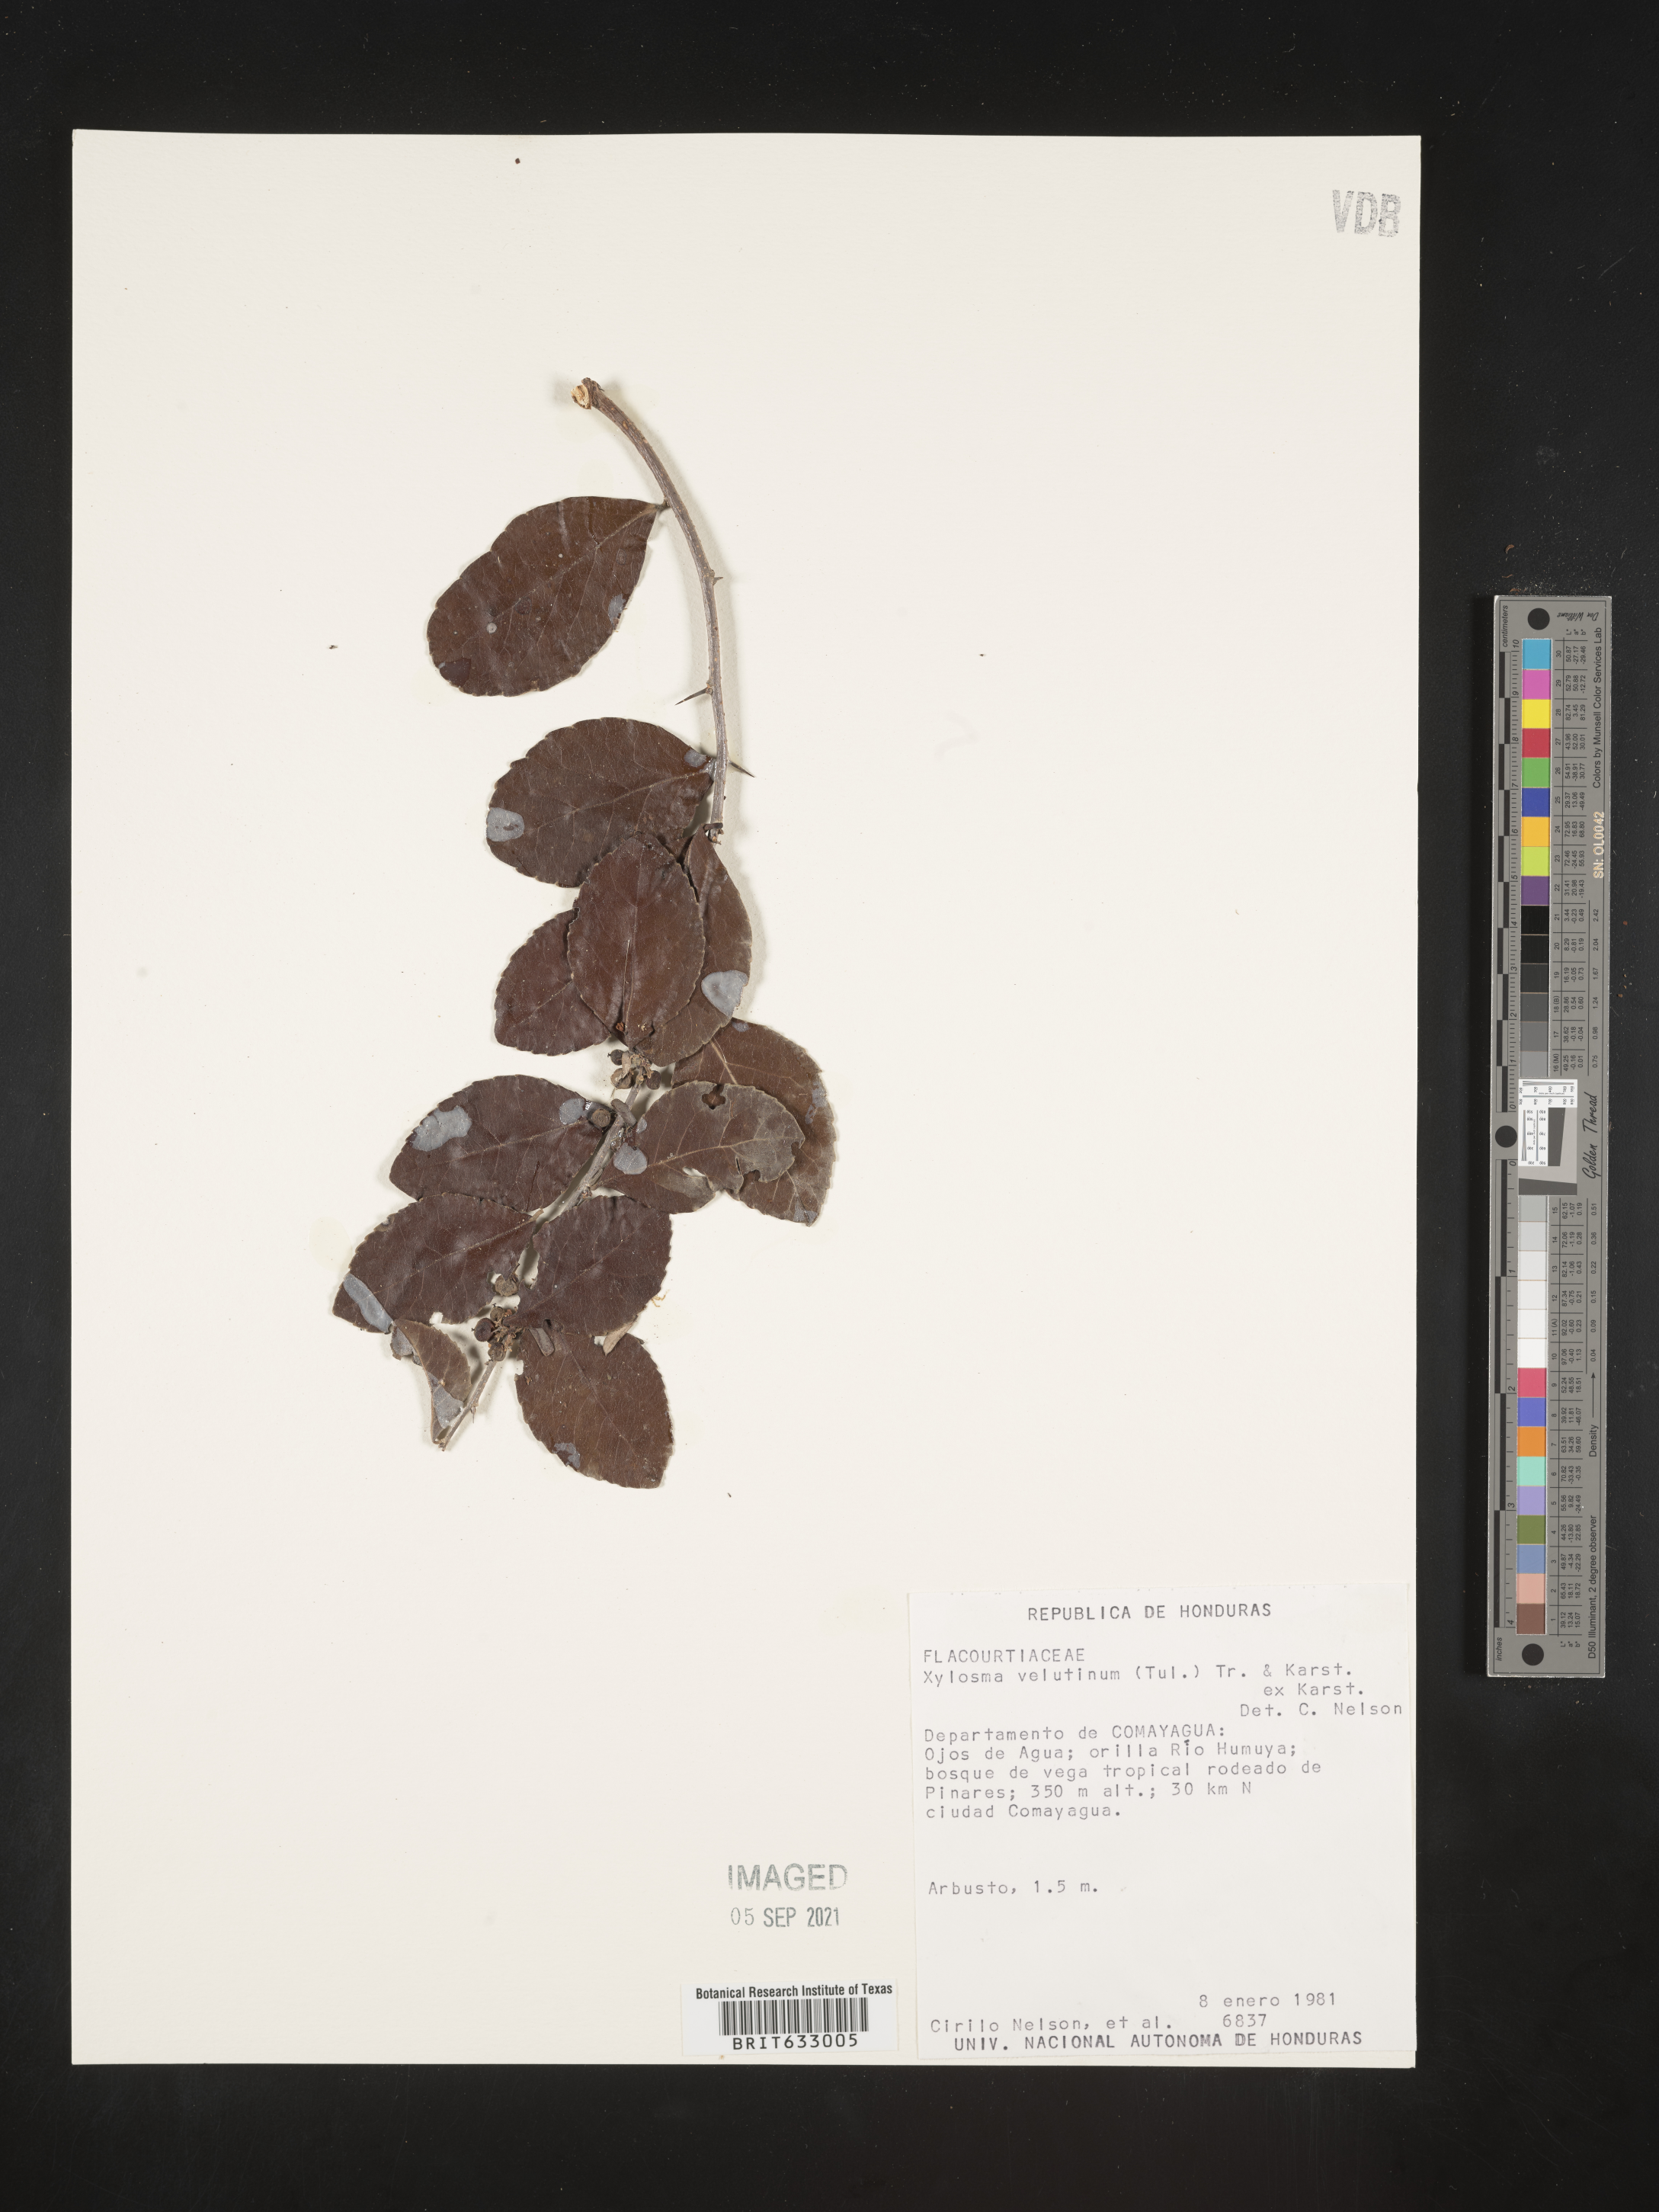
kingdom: Plantae
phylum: Tracheophyta
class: Magnoliopsida
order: Malpighiales
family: Salicaceae
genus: Xylosma
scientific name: Xylosma
